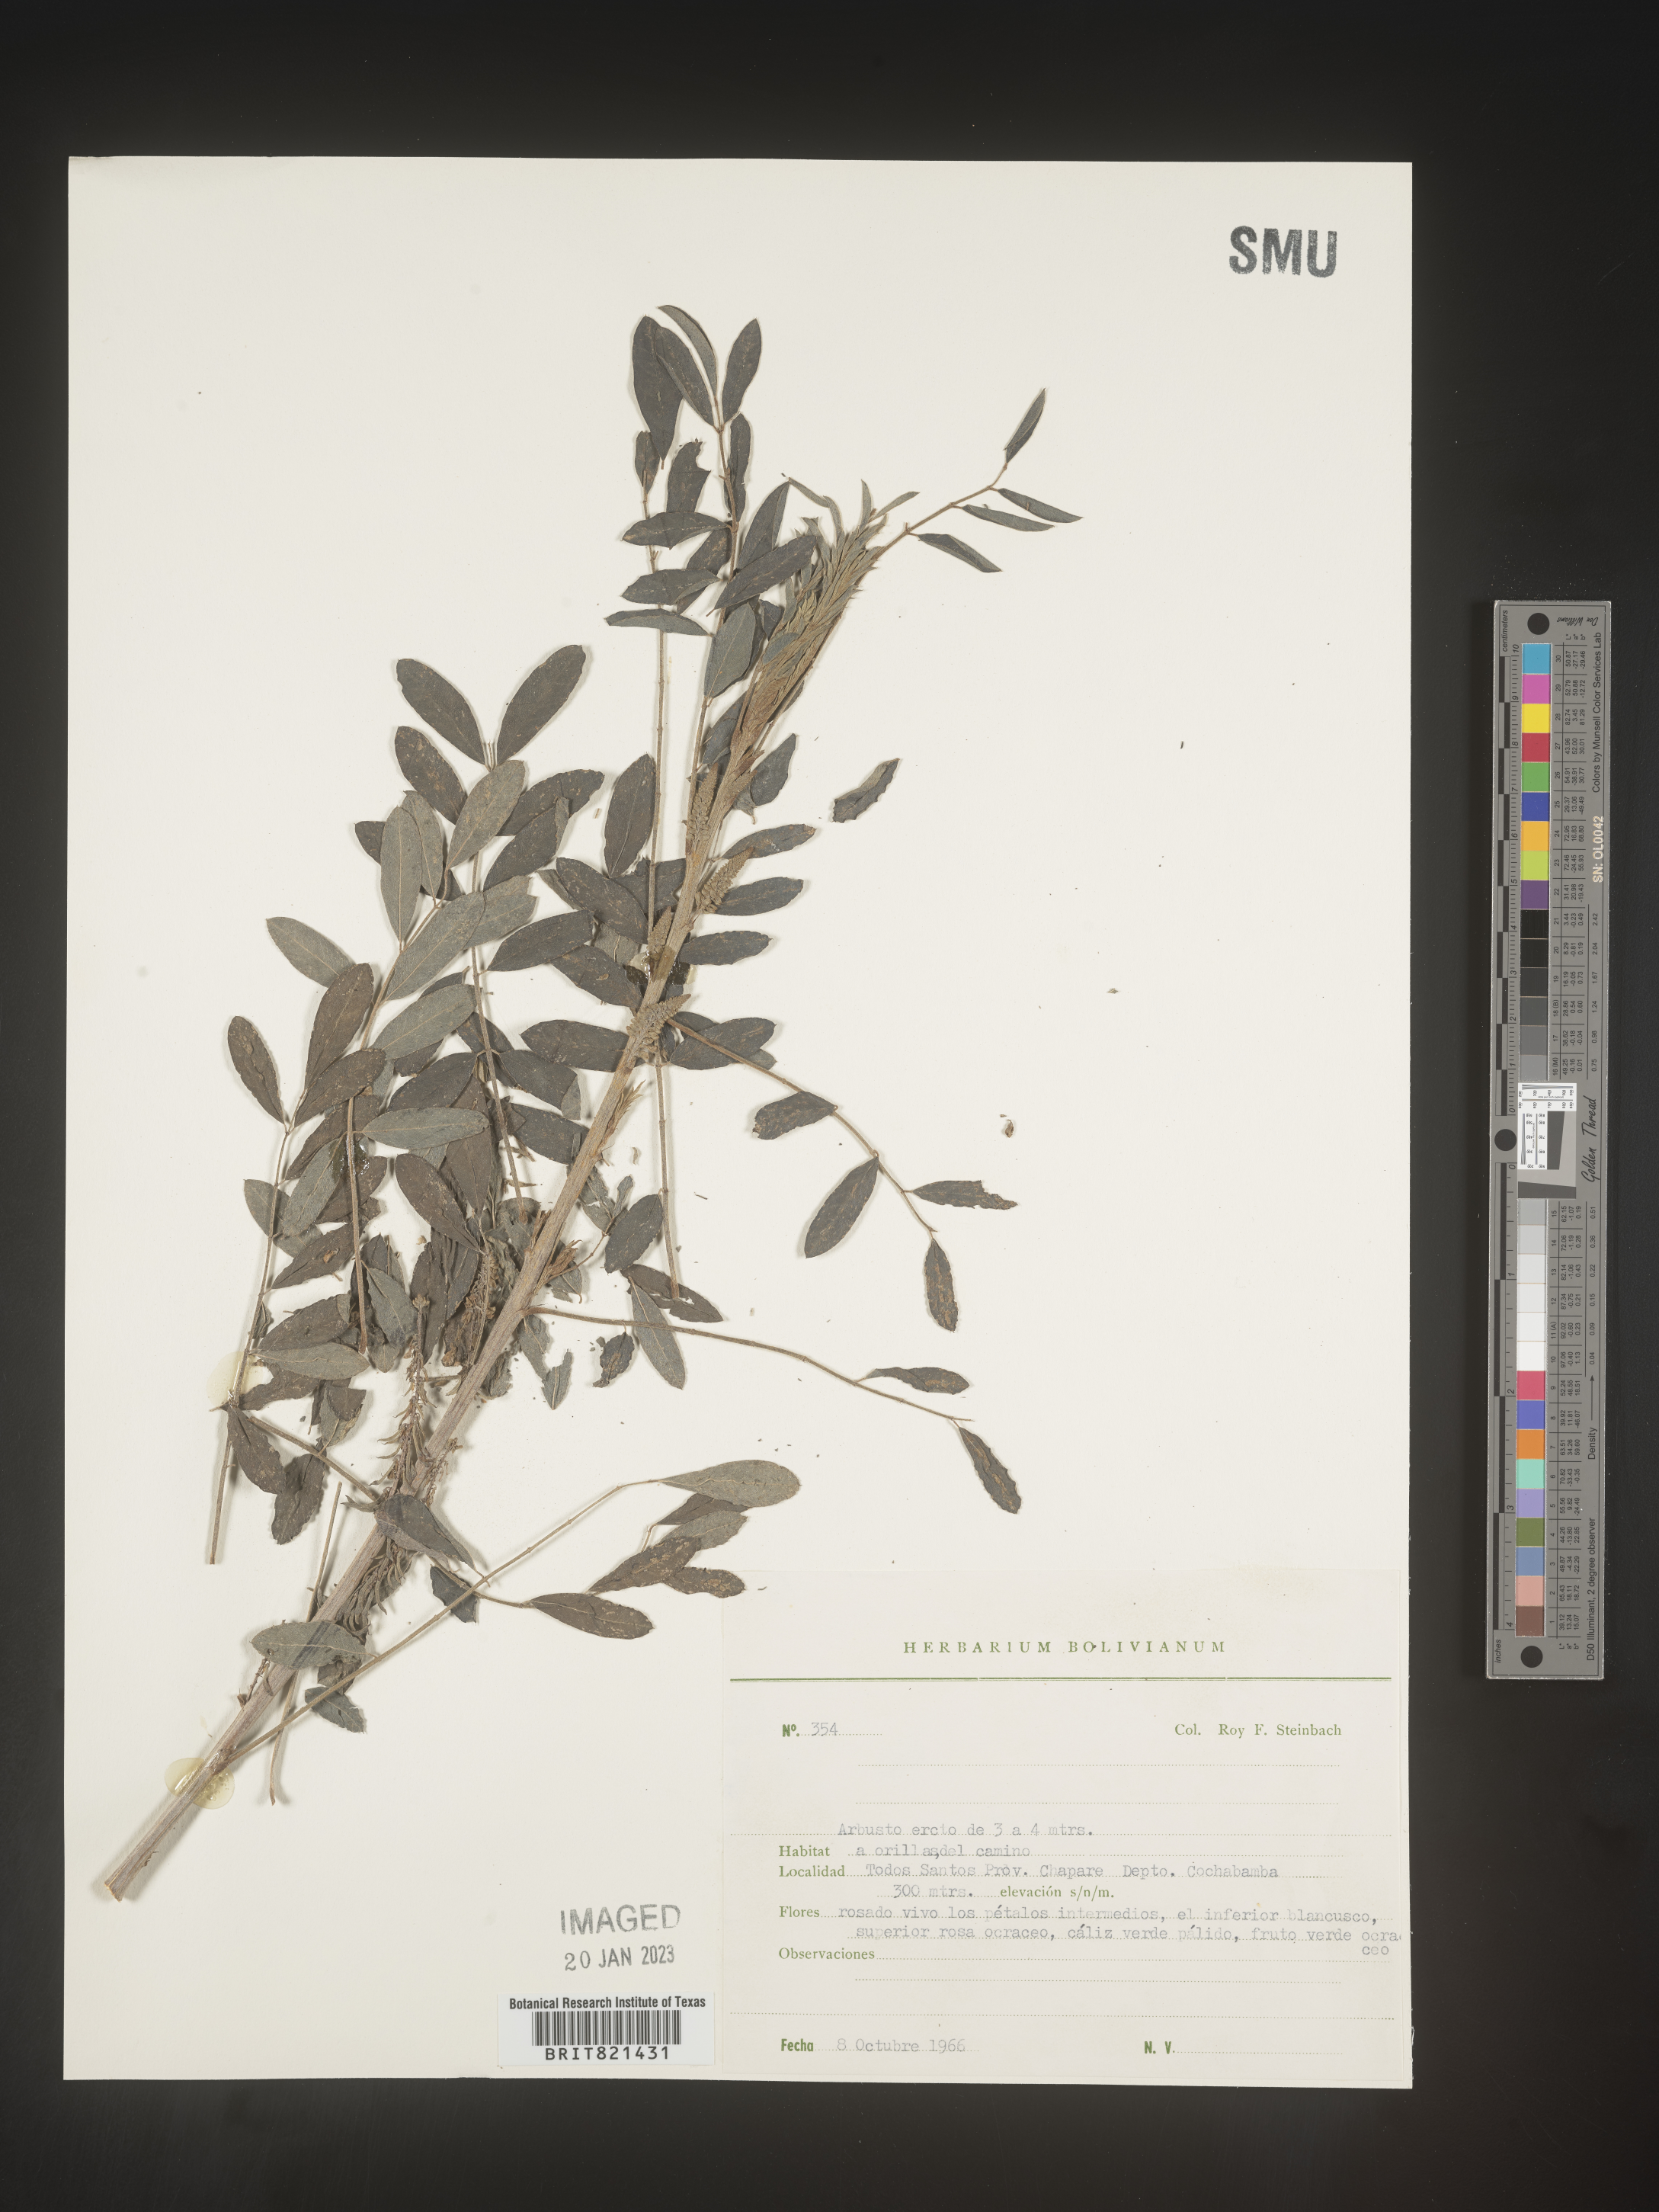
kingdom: Plantae
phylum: Tracheophyta
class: Magnoliopsida
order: Fabales
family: Fabaceae
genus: Indigofera
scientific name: Indigofera
